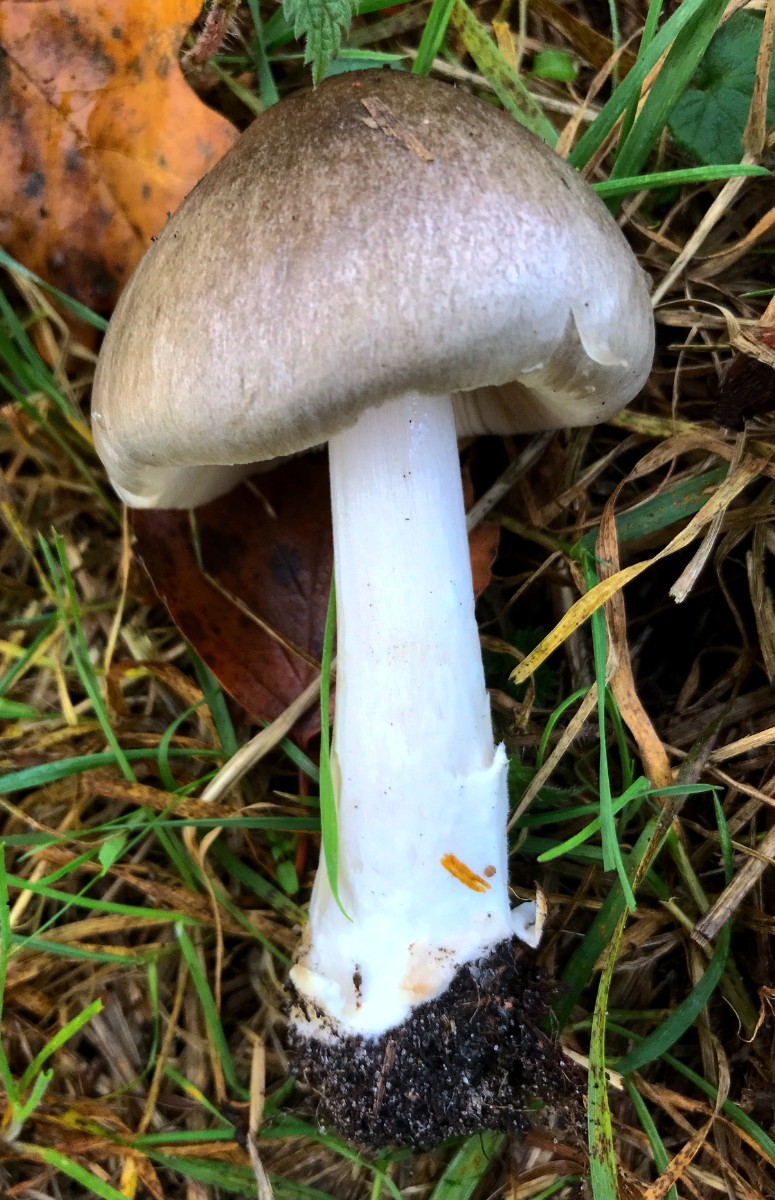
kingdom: Fungi
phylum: Basidiomycota
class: Agaricomycetes
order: Agaricales
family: Pluteaceae
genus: Volvopluteus
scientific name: Volvopluteus gloiocephalus
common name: høj posesvamp
